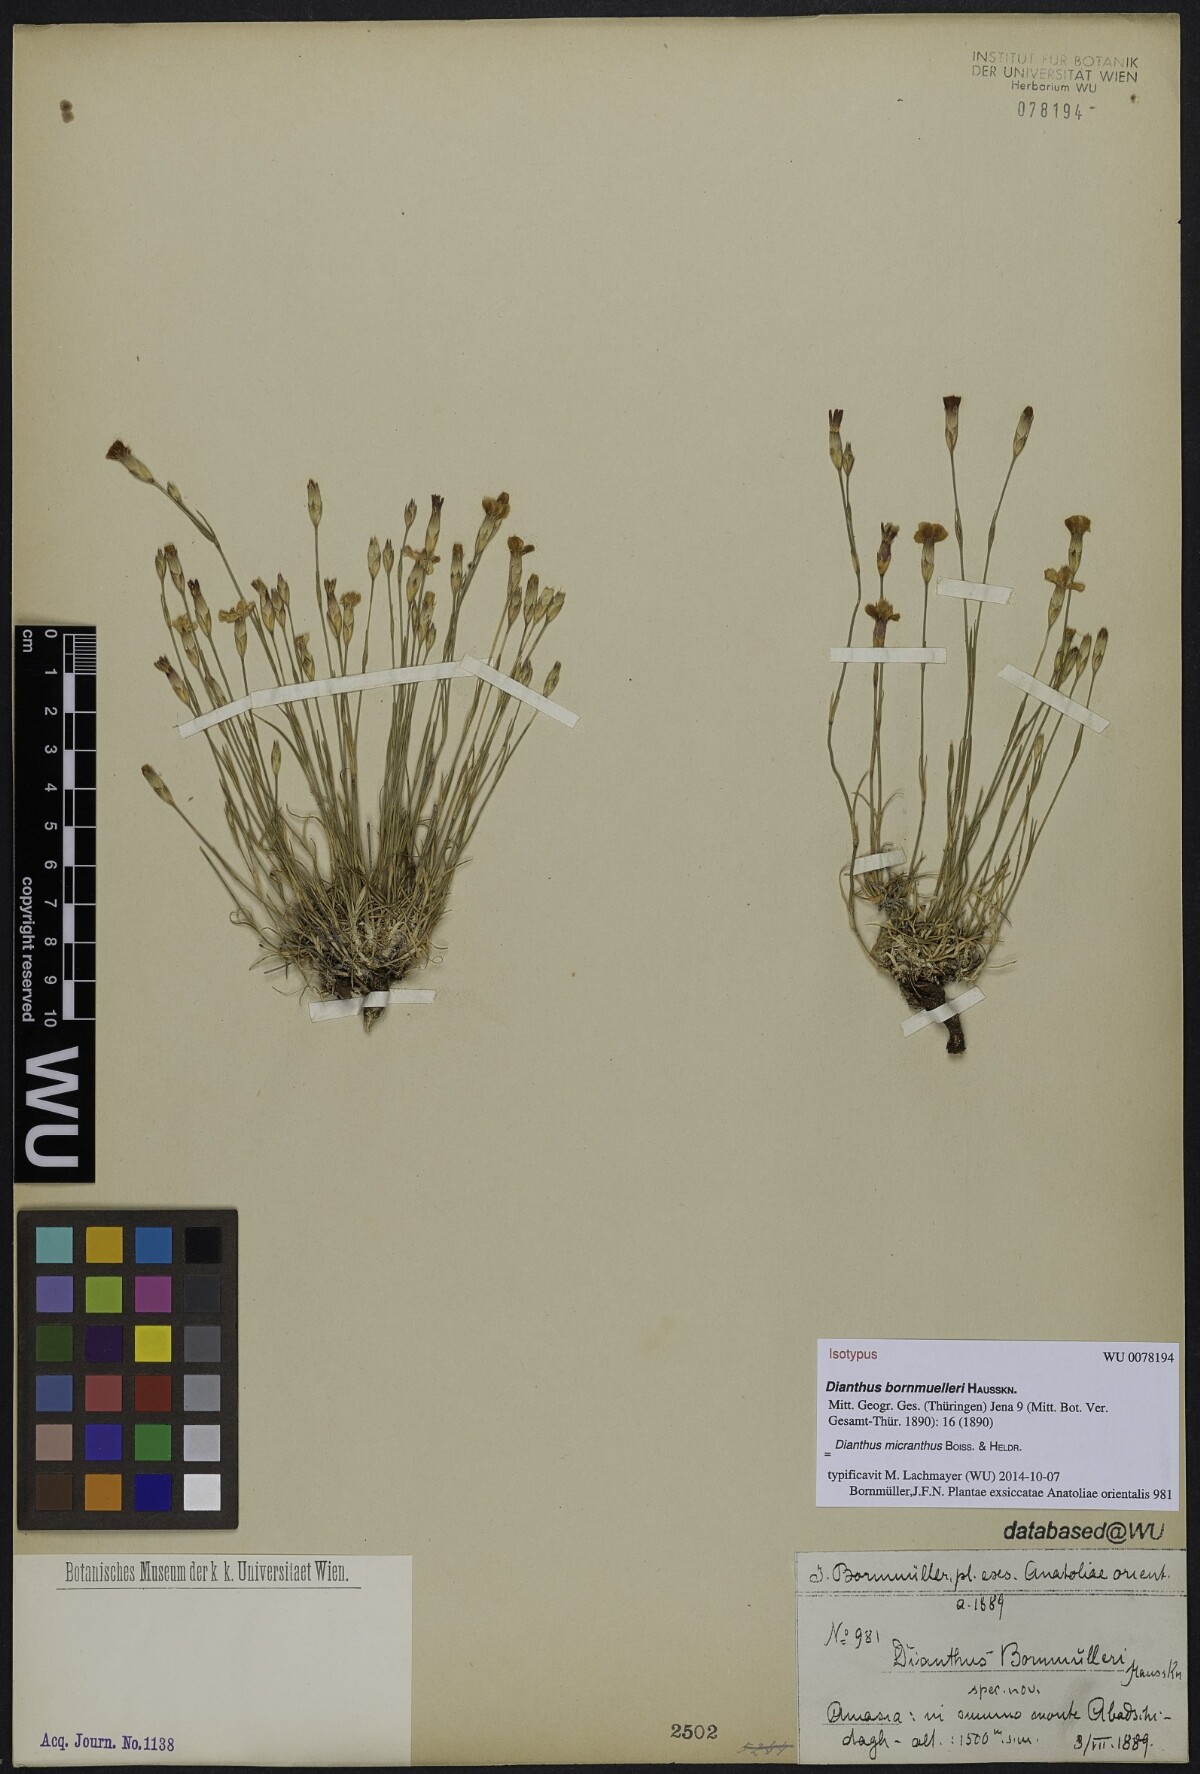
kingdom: Plantae
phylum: Tracheophyta
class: Magnoliopsida
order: Caryophyllales
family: Caryophyllaceae
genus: Dianthus
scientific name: Dianthus bornmuelleri
